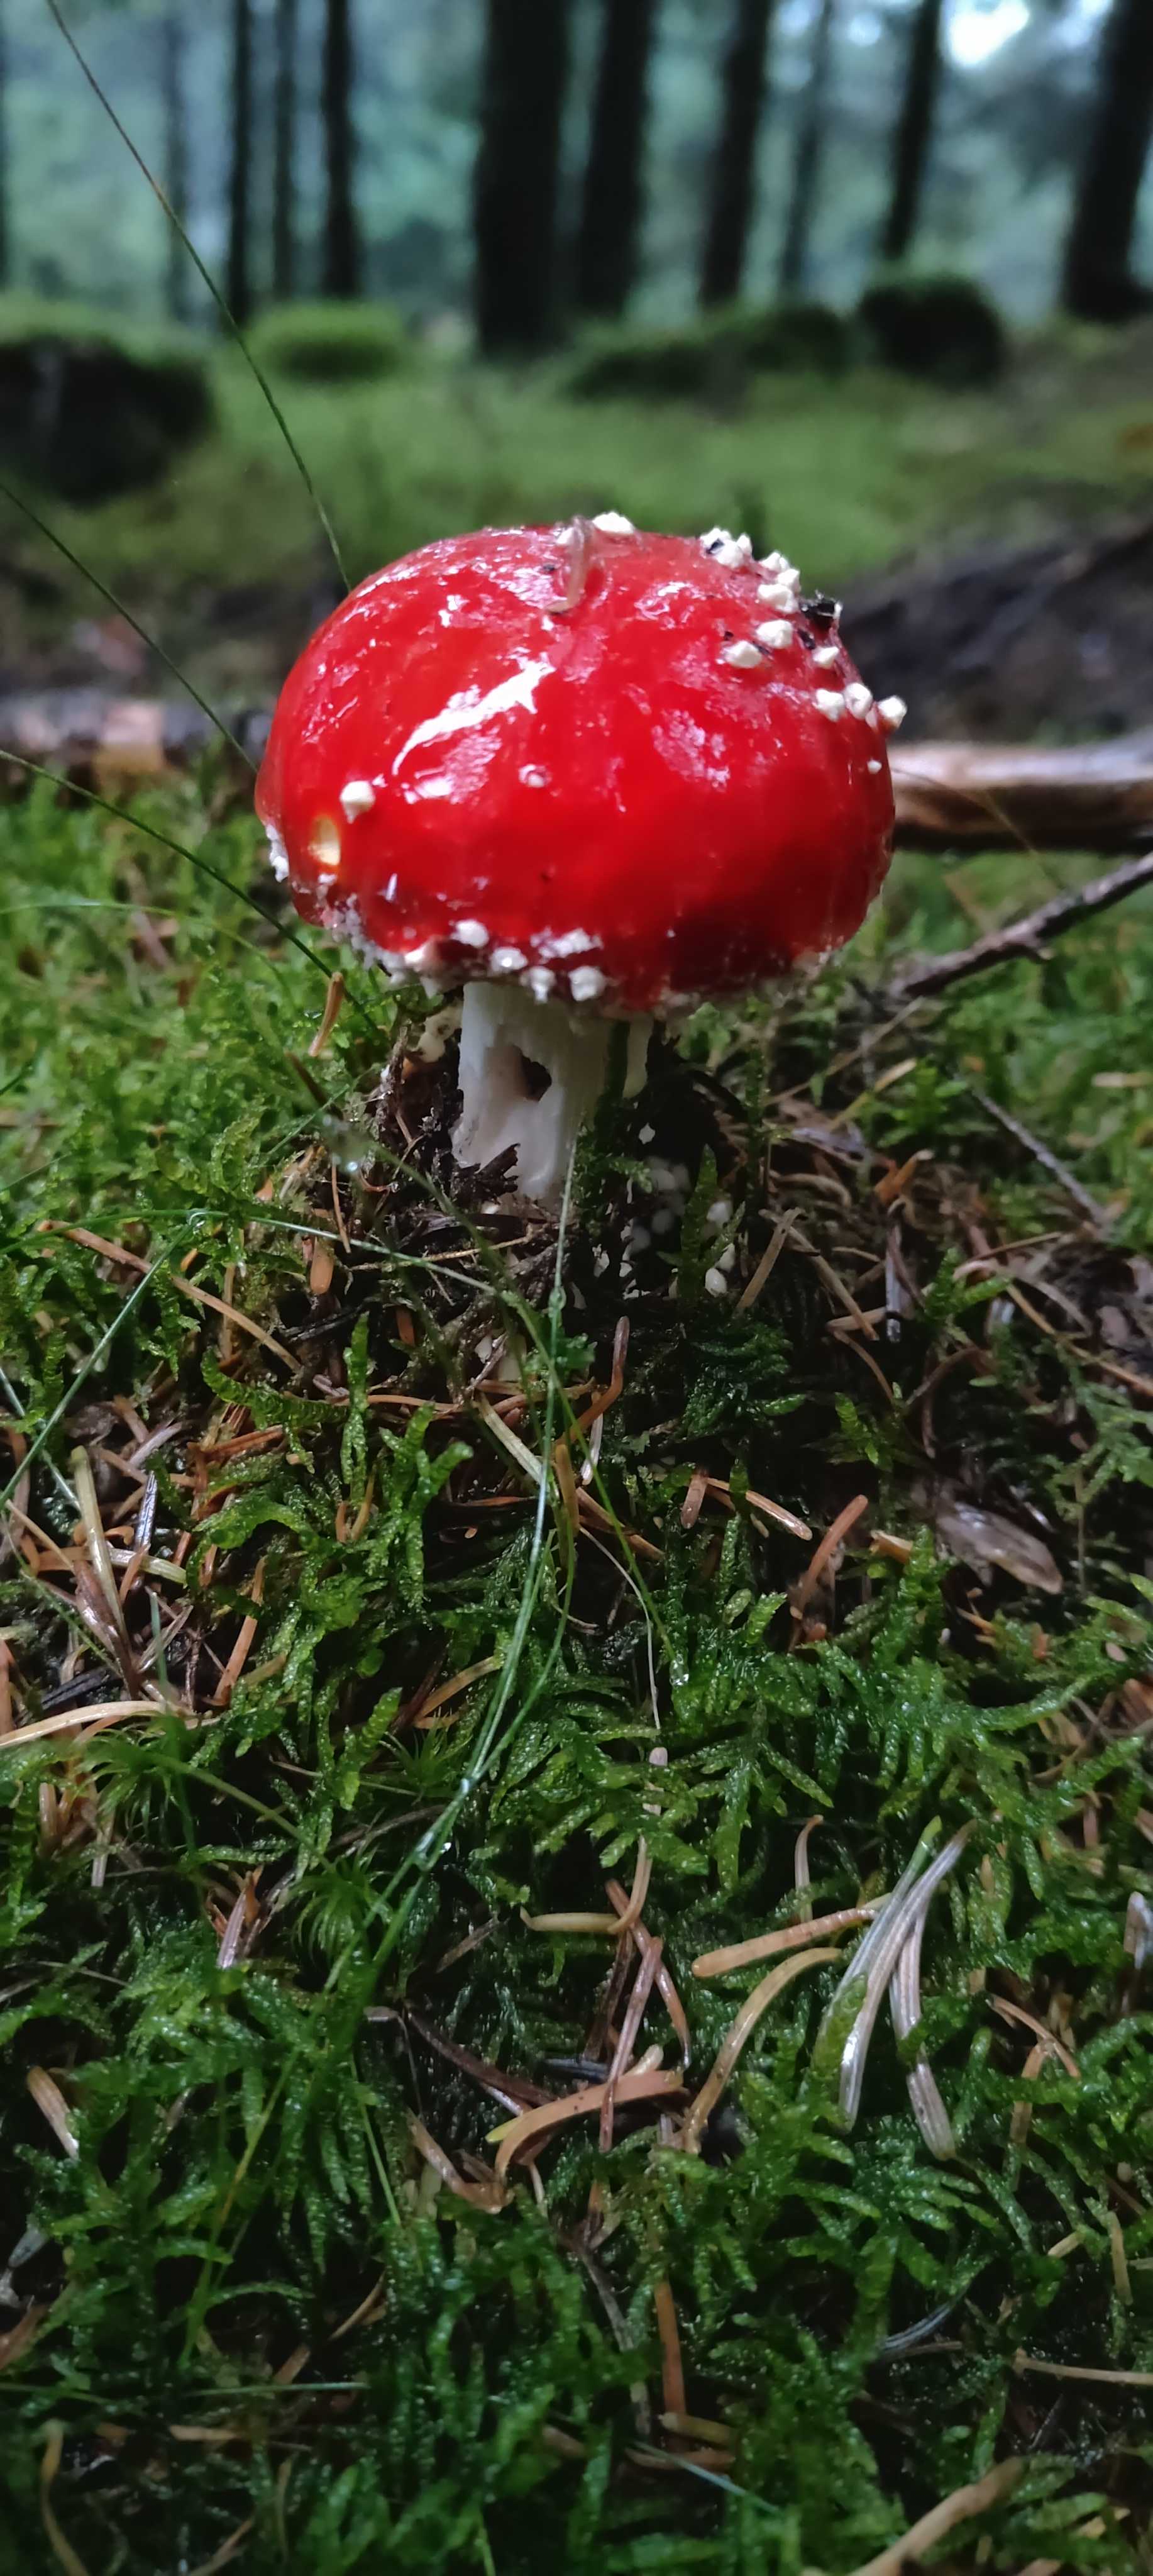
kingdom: Fungi
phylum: Basidiomycota
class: Agaricomycetes
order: Agaricales
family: Amanitaceae
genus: Amanita
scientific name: Amanita muscaria
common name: rød fluesvamp
